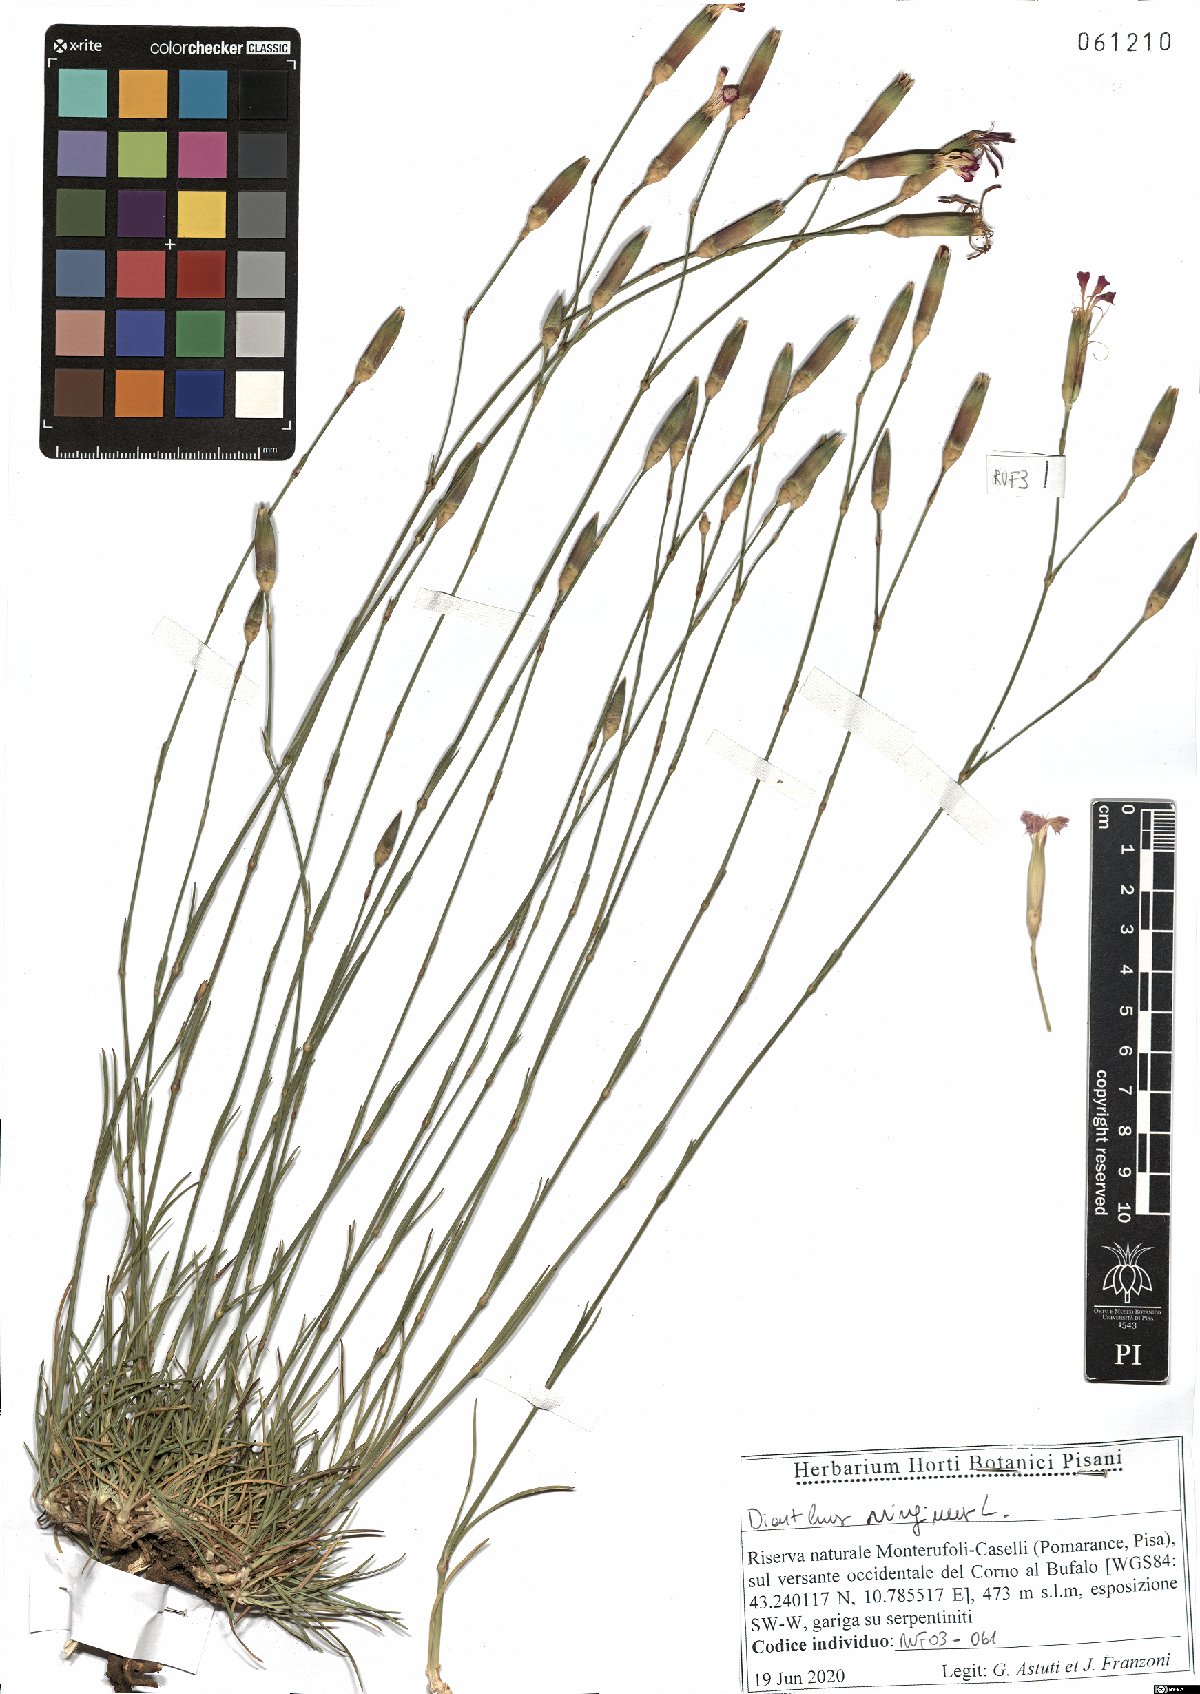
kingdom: Plantae
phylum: Tracheophyta
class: Magnoliopsida
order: Caryophyllales
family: Caryophyllaceae
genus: Dianthus
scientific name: Dianthus virgineus
